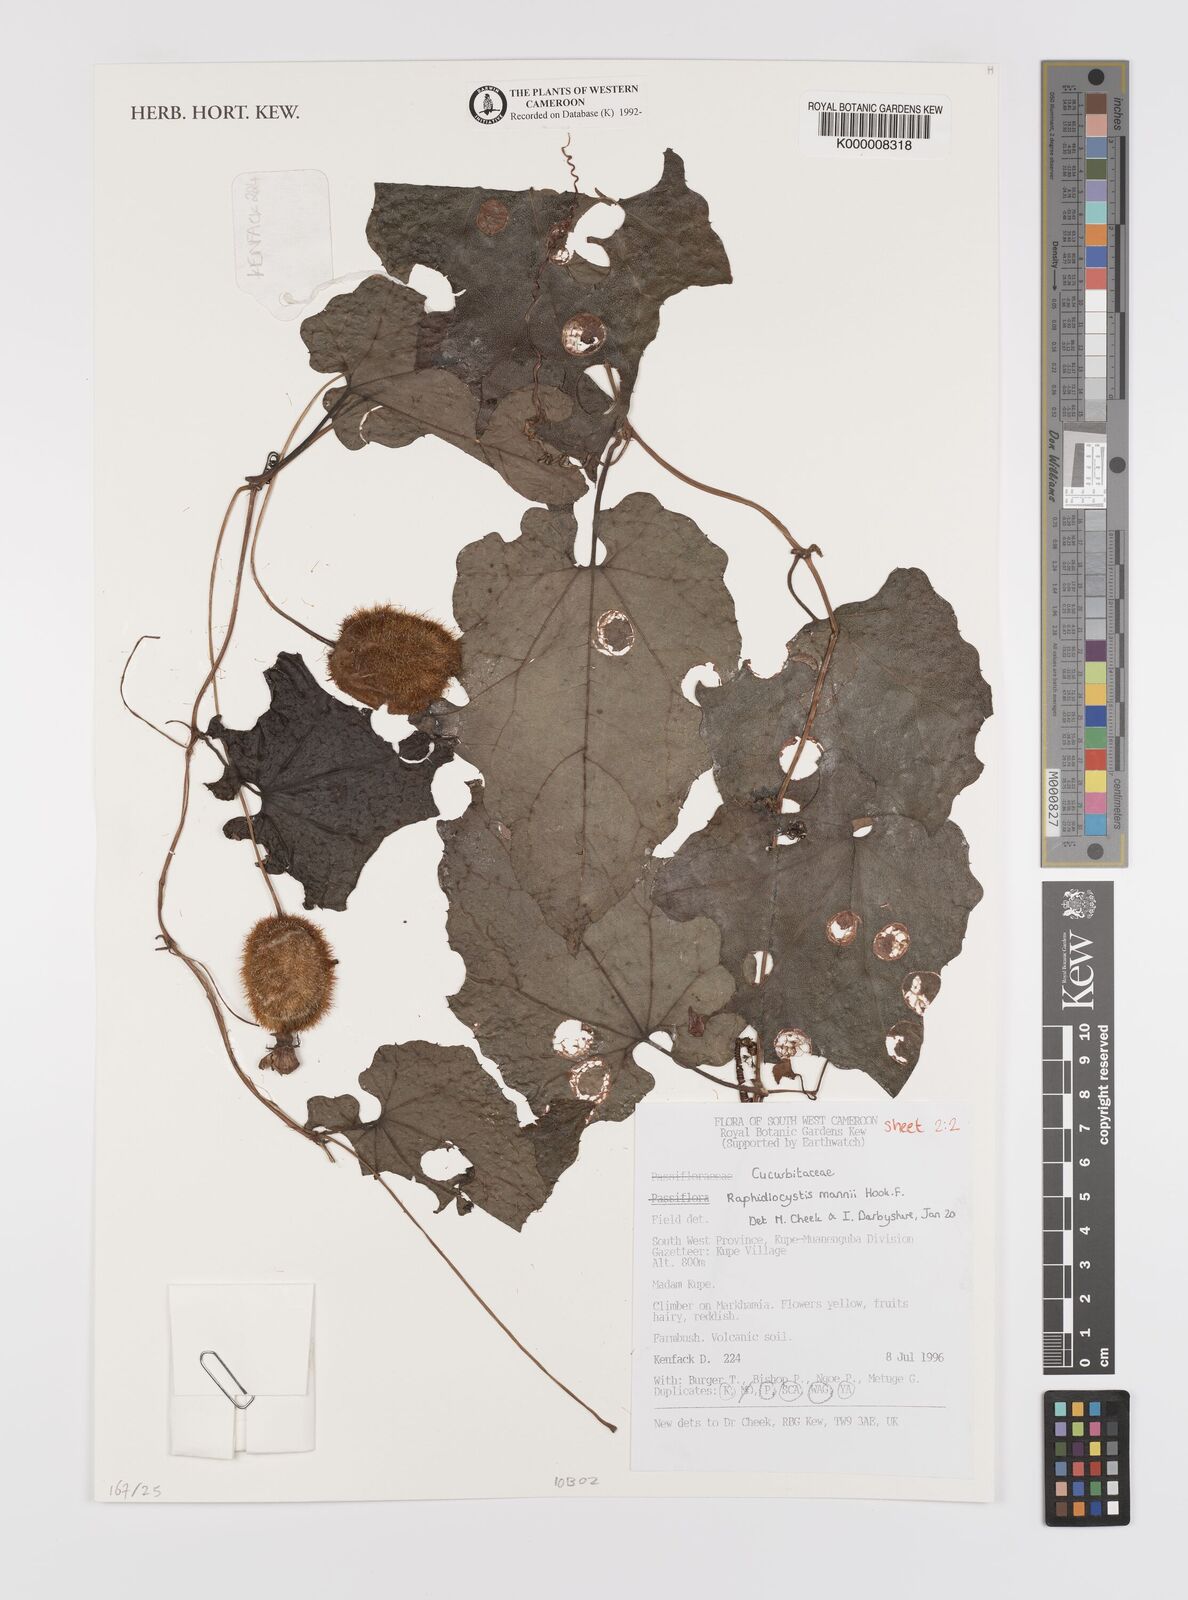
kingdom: Plantae
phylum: Tracheophyta
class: Magnoliopsida
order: Cucurbitales
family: Cucurbitaceae
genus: Raphidiocystis
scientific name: Raphidiocystis mannii
